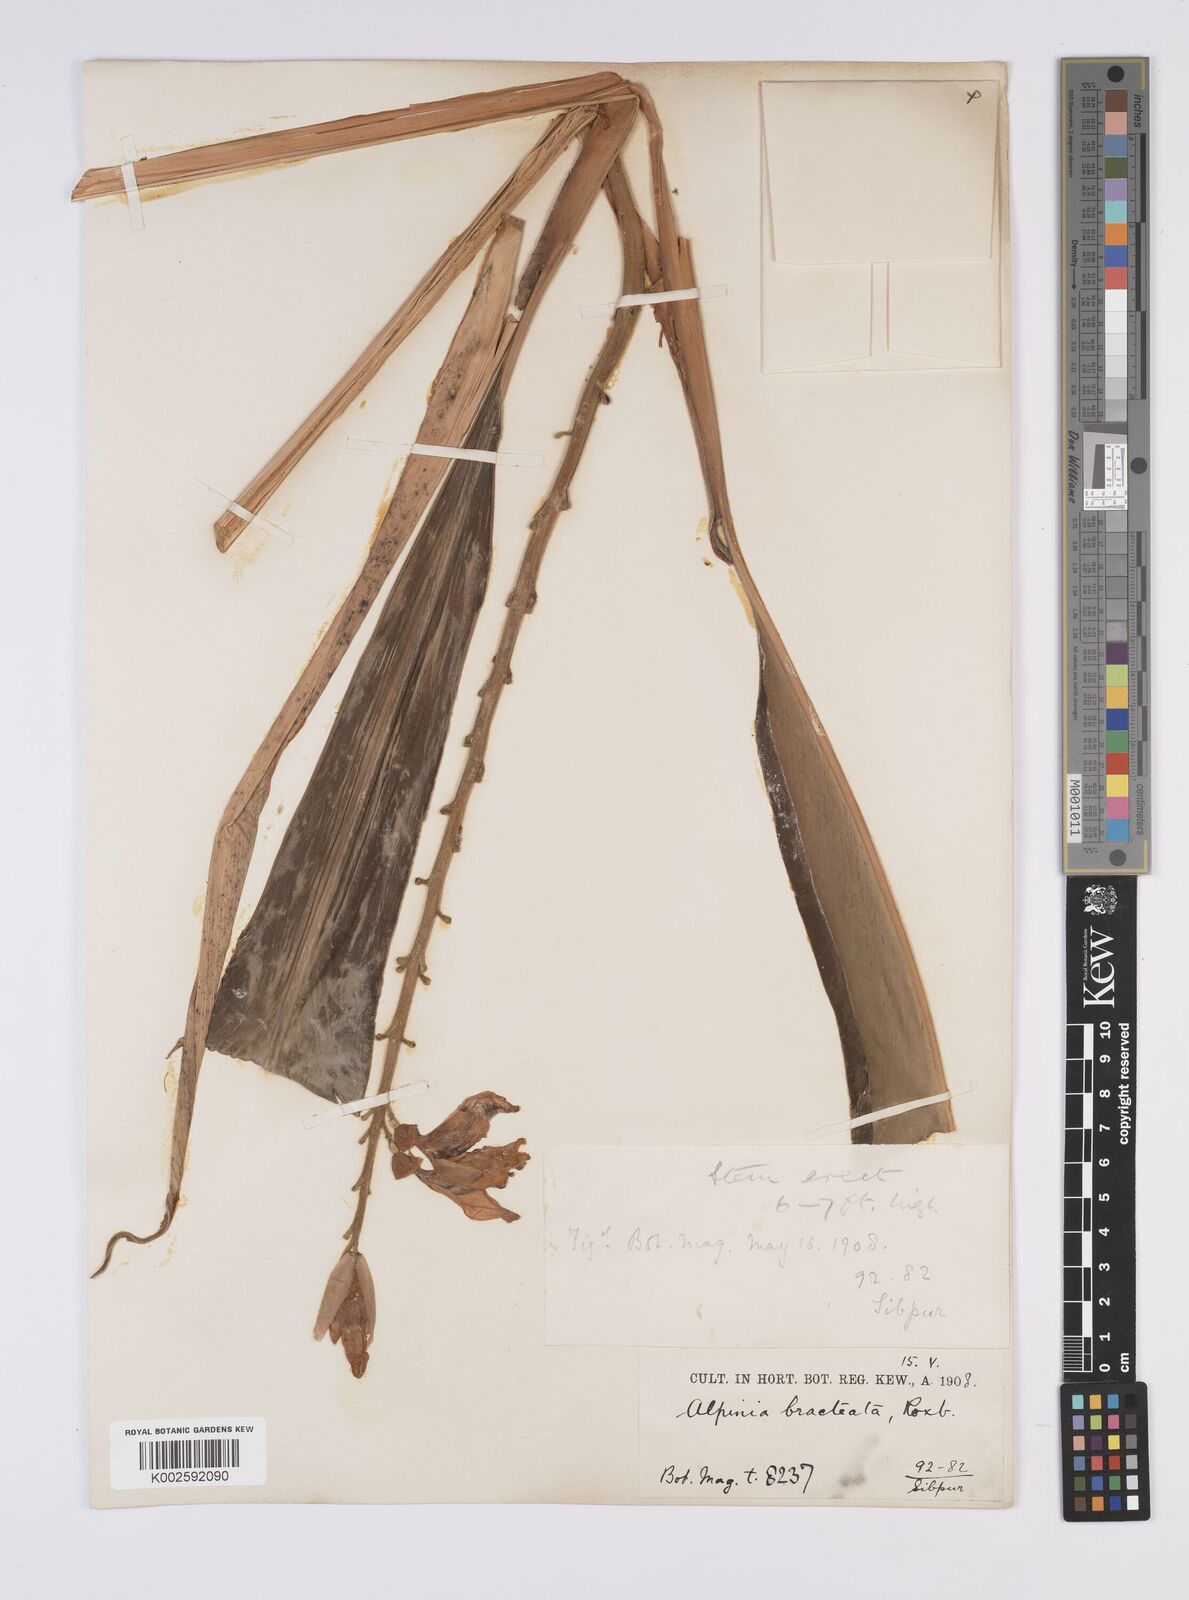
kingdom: Plantae
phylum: Tracheophyta
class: Liliopsida
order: Zingiberales
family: Zingiberaceae
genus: Alpinia
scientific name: Alpinia roxburghii
